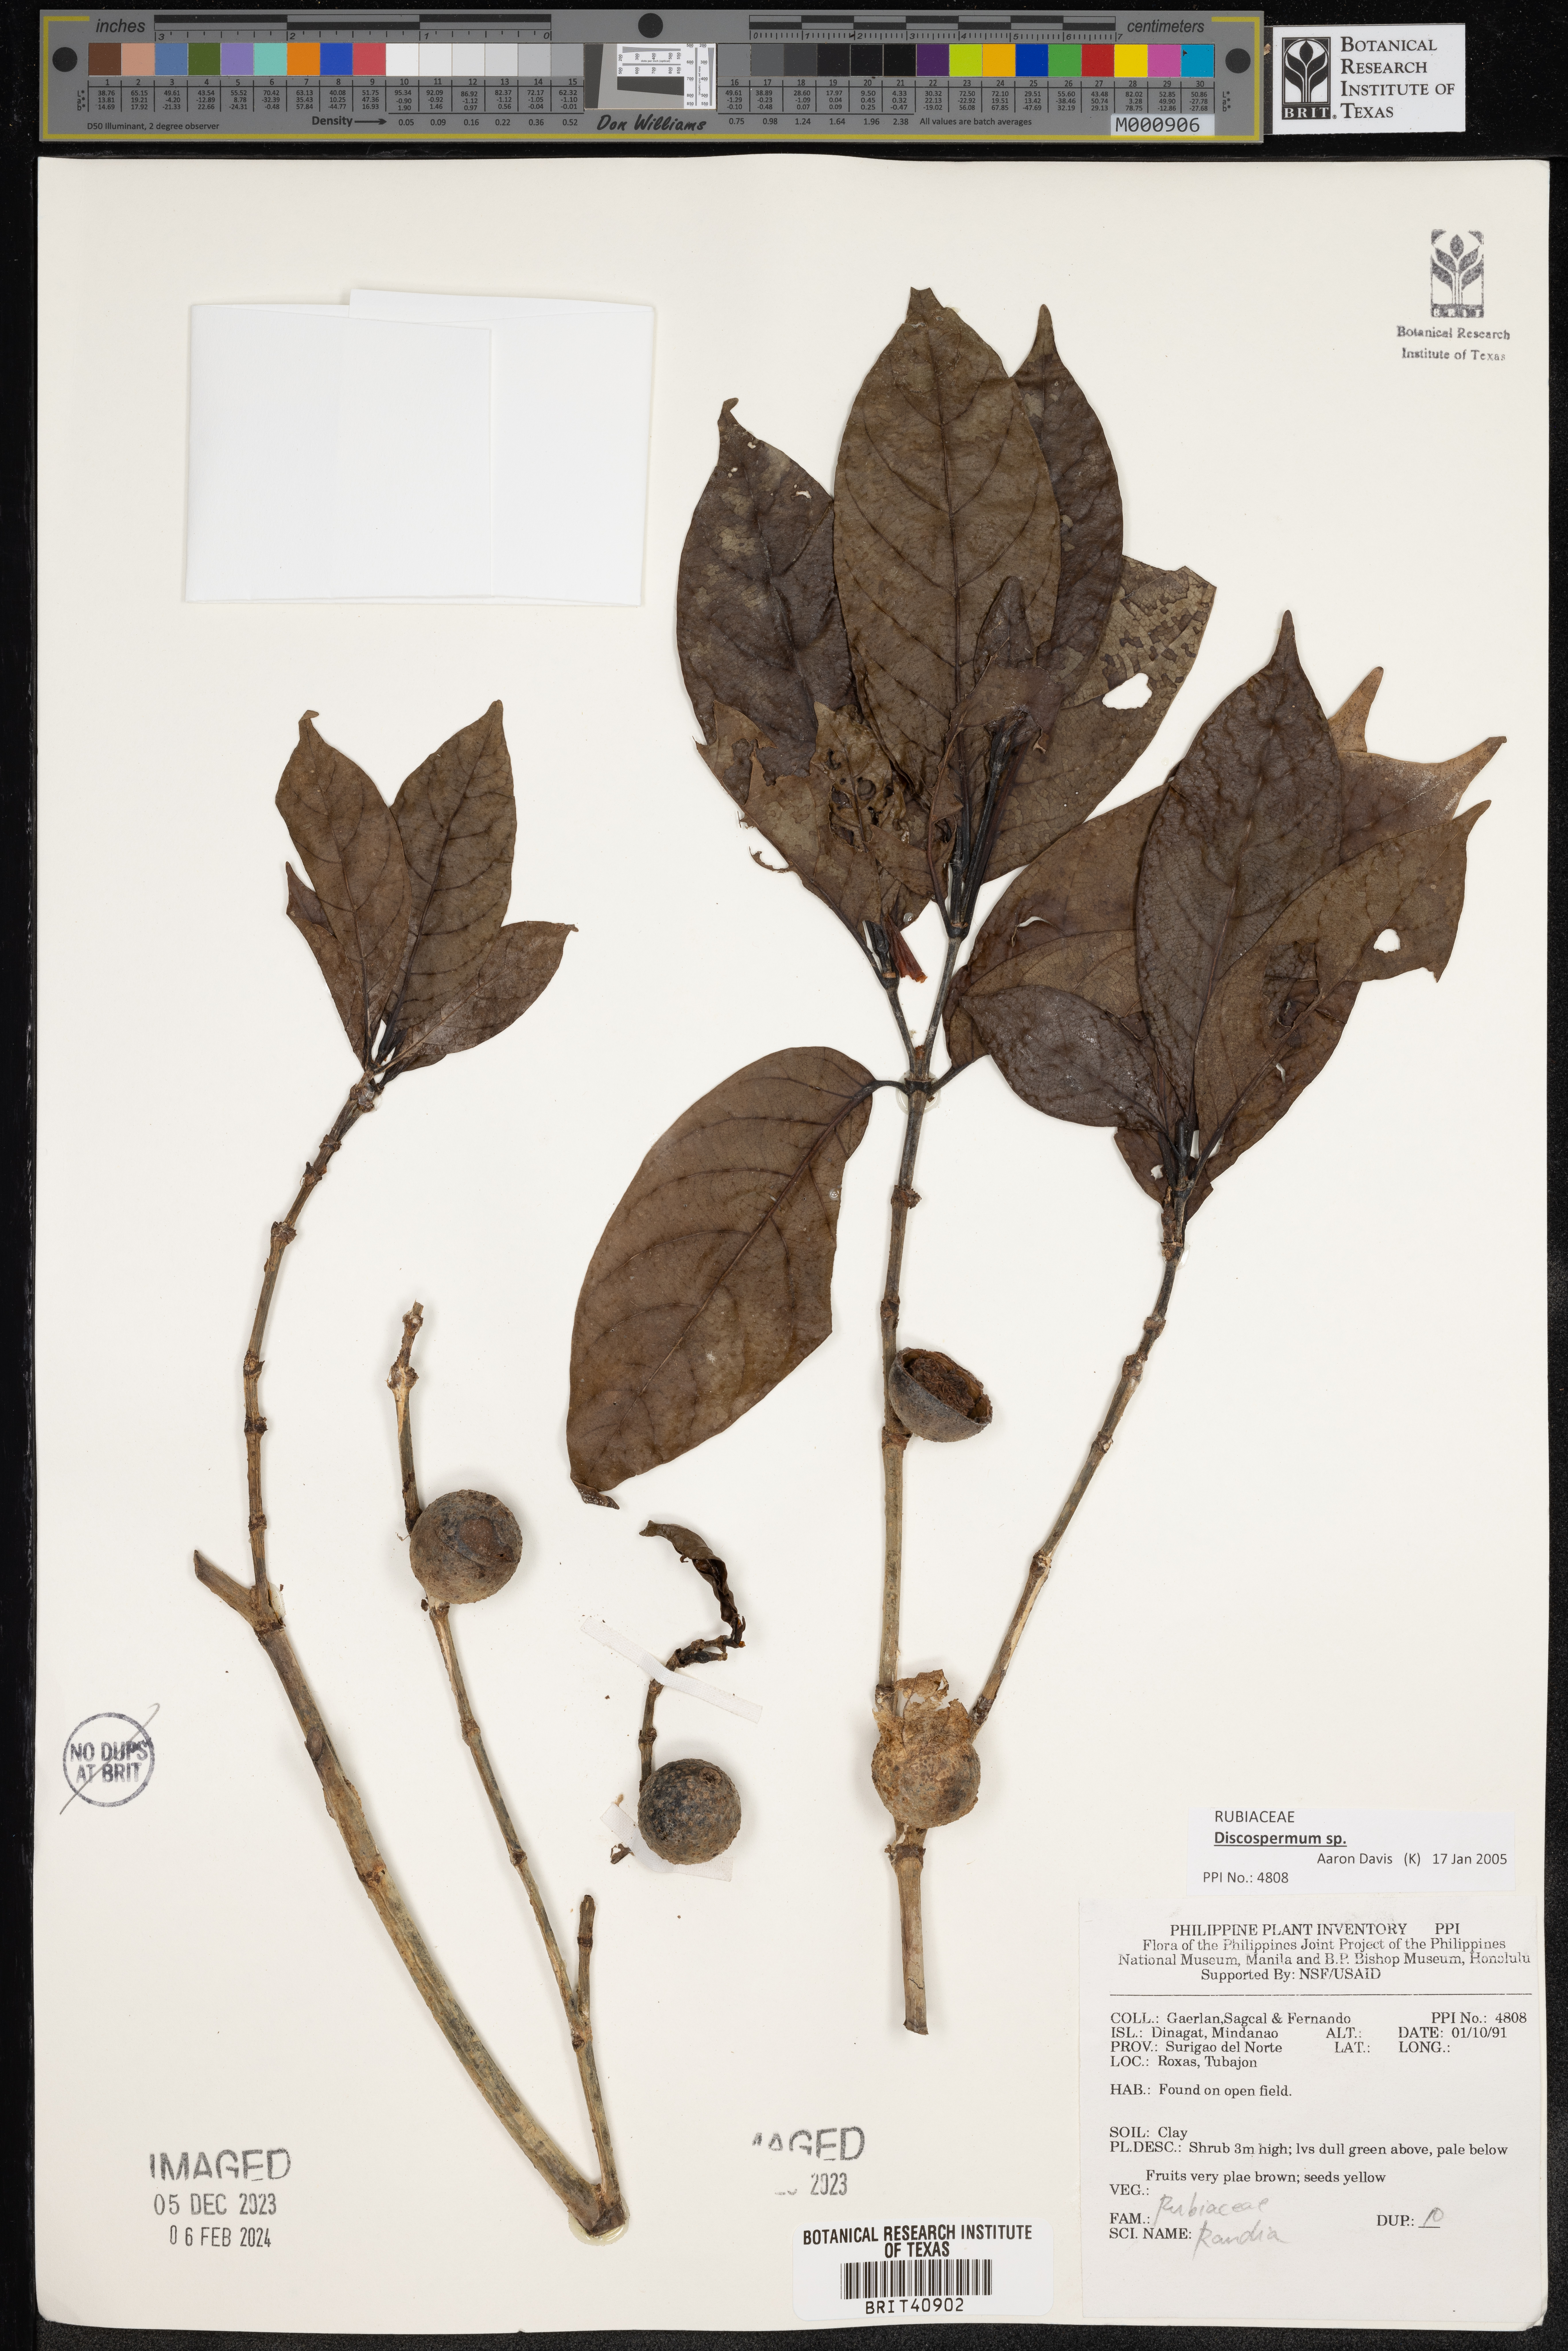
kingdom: Plantae
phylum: Tracheophyta
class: Magnoliopsida
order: Gentianales
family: Rubiaceae
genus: Randia
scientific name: Randia
